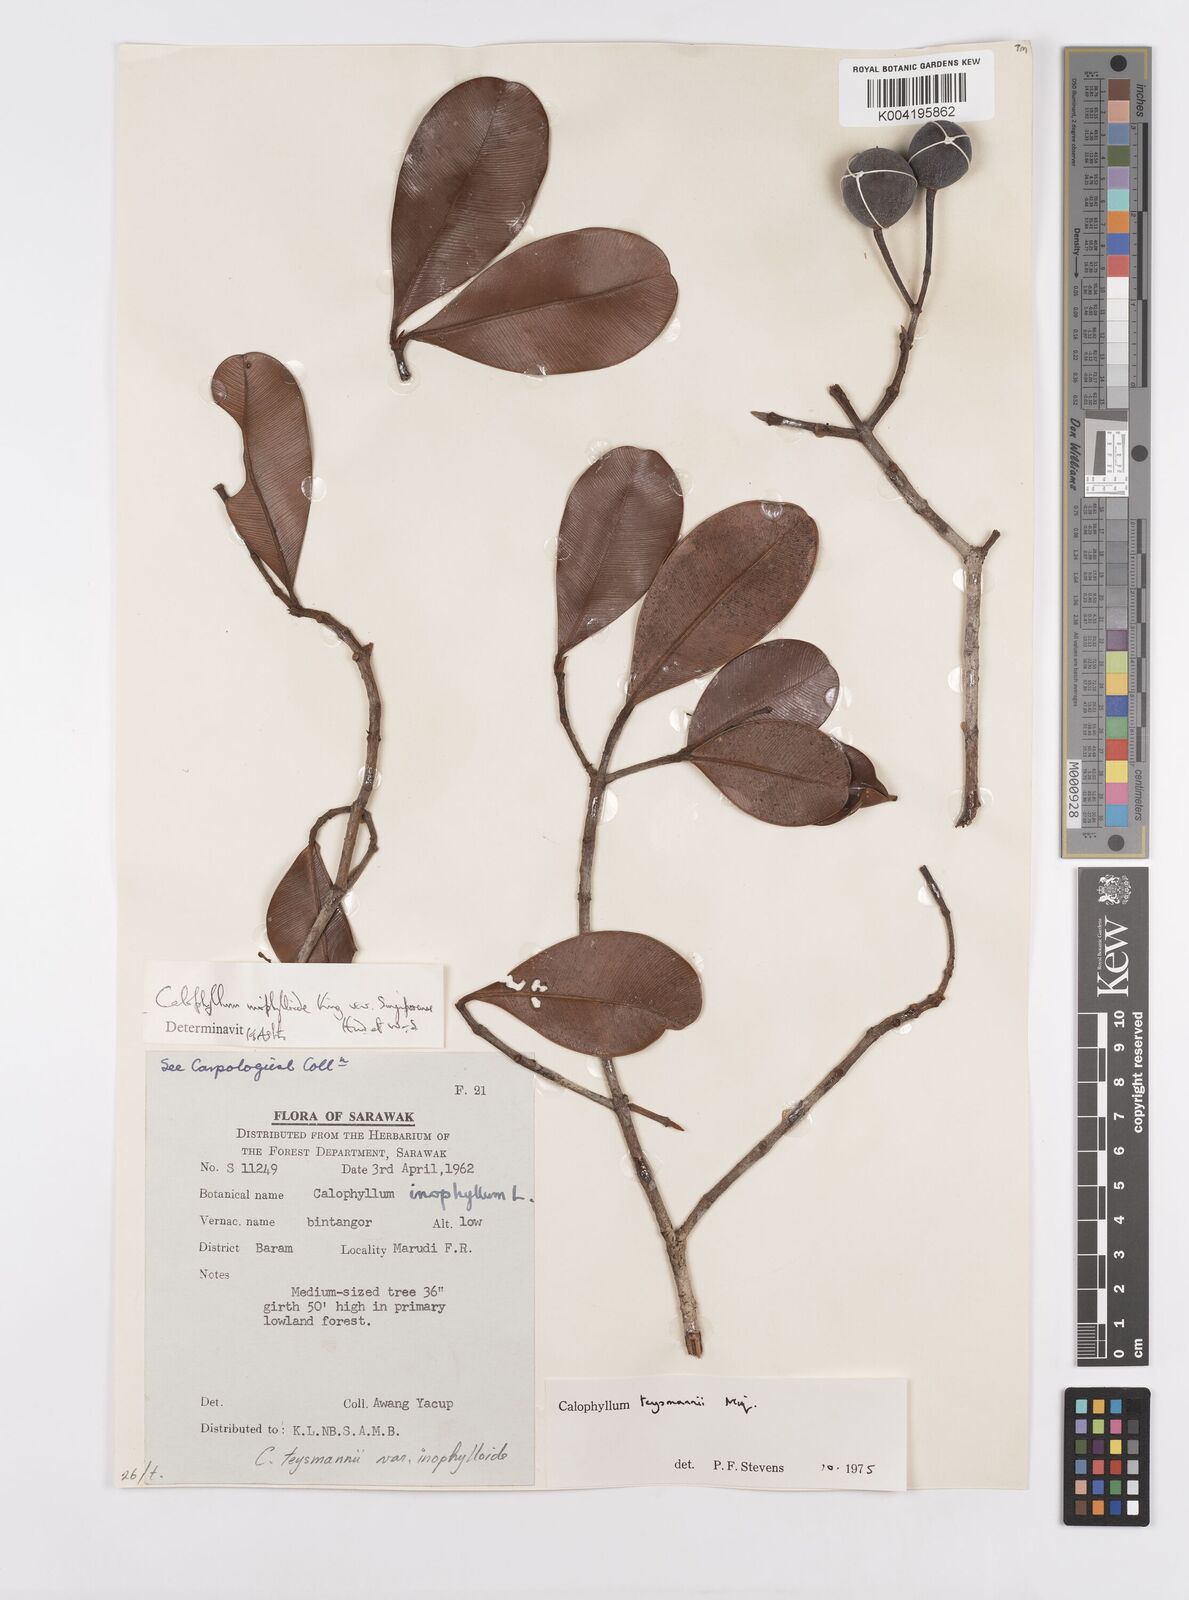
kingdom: Plantae
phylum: Tracheophyta
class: Magnoliopsida
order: Malpighiales
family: Calophyllaceae
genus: Calophyllum
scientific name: Calophyllum teysmannii
